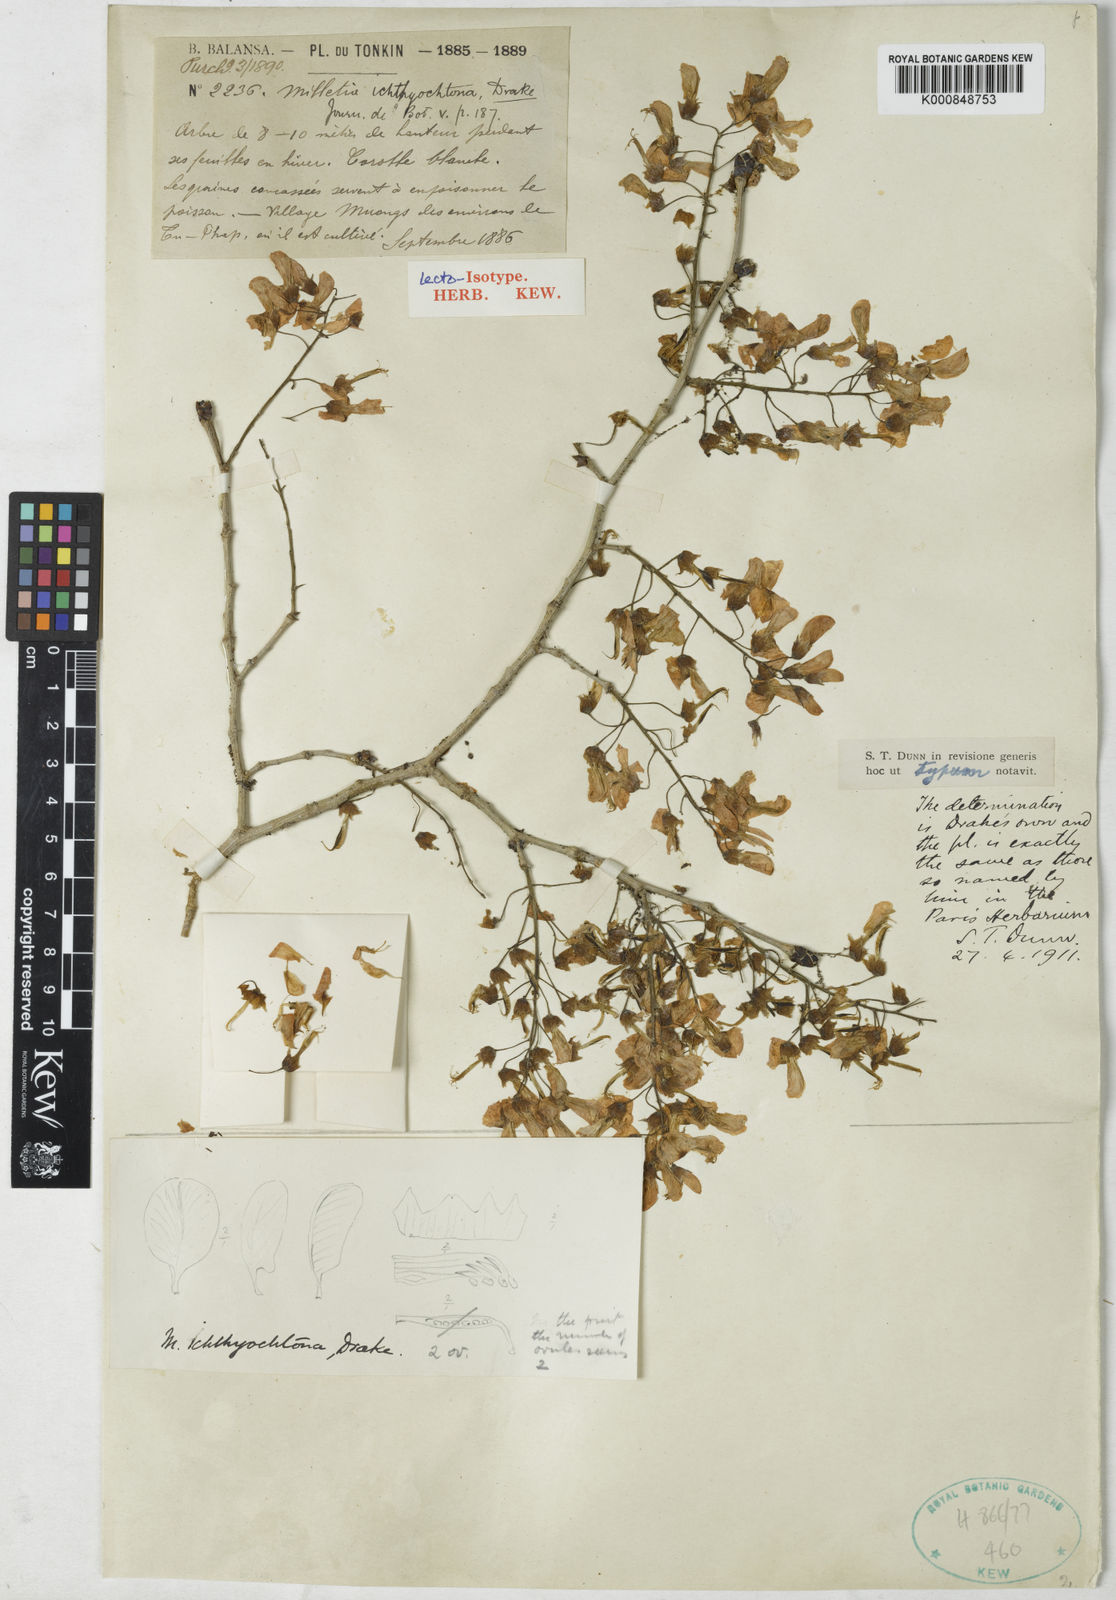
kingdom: Plantae
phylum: Tracheophyta
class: Magnoliopsida
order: Fabales
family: Fabaceae
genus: Millettia
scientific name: Millettia ichthyochtona
